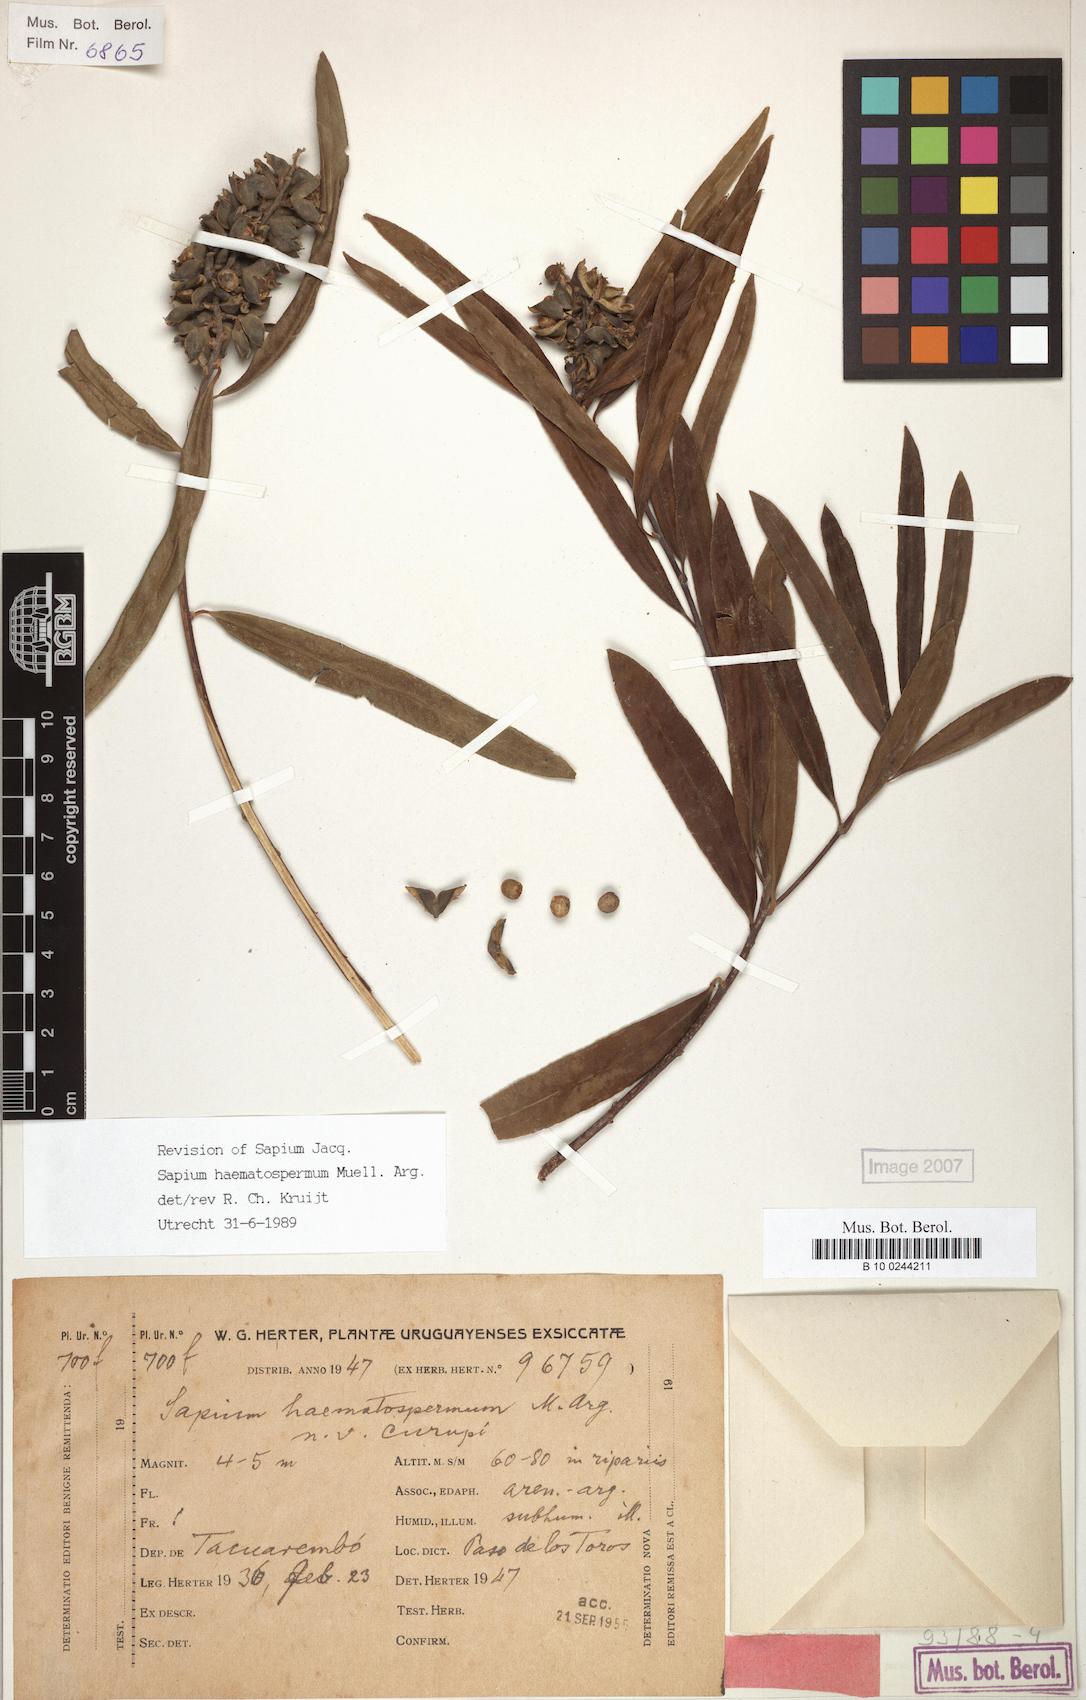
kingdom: Plantae
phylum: Tracheophyta
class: Magnoliopsida
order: Malpighiales
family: Euphorbiaceae
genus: Sapium
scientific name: Sapium haematospermum
